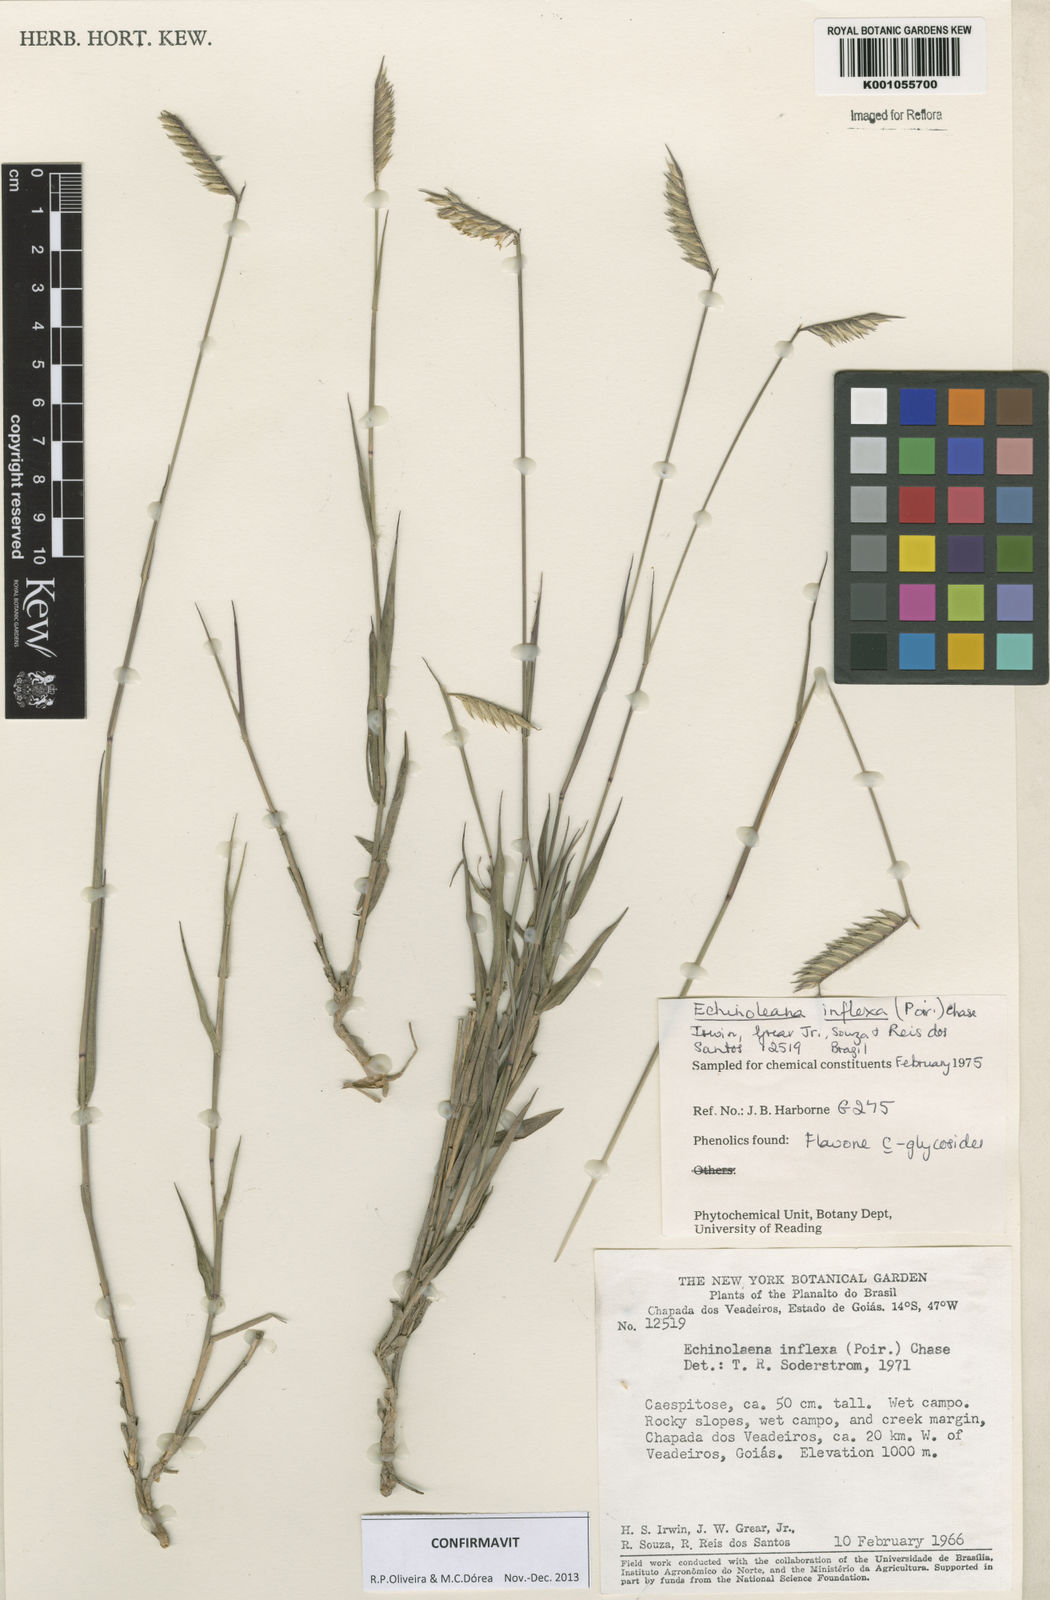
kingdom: Plantae
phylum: Tracheophyta
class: Liliopsida
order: Poales
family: Poaceae
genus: Echinolaena
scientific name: Echinolaena inflexa
